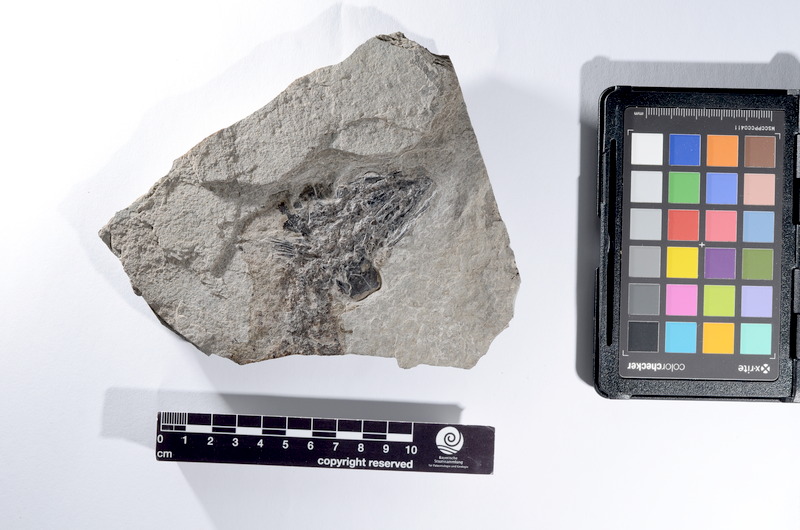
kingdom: Animalia
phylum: Chordata
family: Pachycormidae
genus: Euthynotus
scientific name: Euthynotus intermedius
